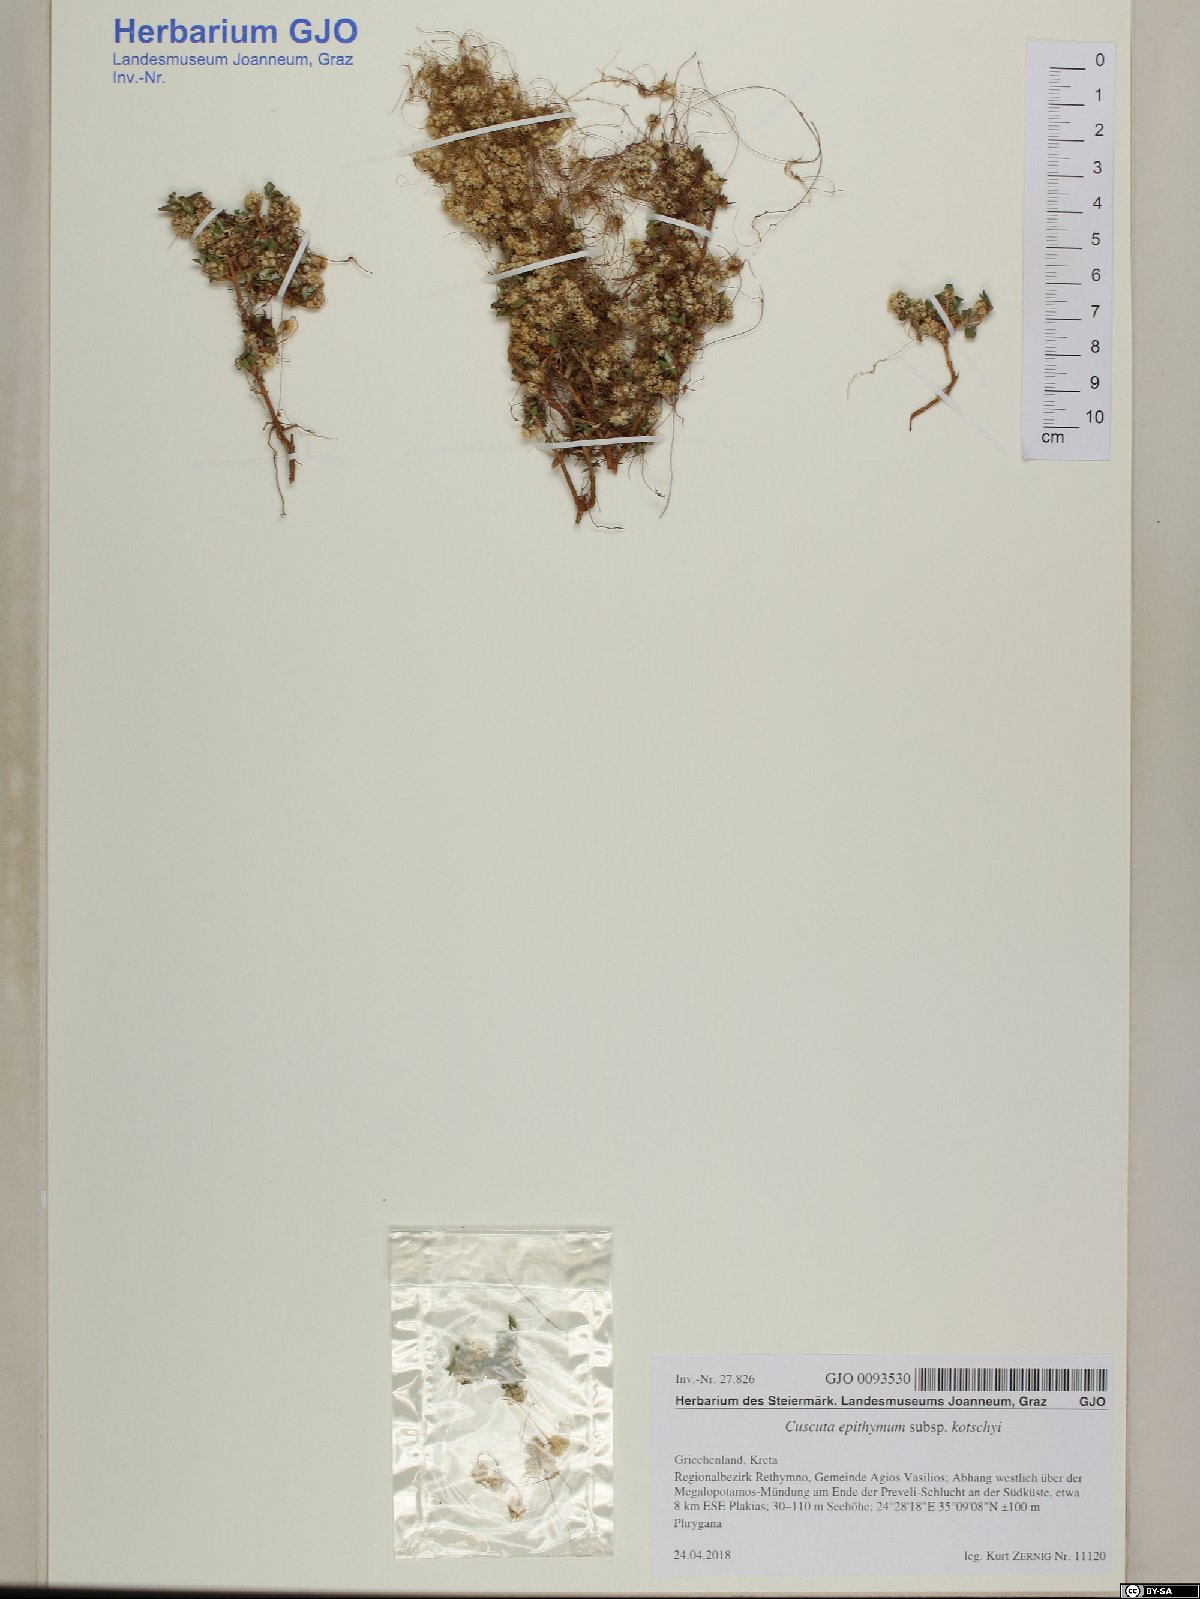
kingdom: Plantae
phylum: Tracheophyta
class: Magnoliopsida
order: Solanales
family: Convolvulaceae
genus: Cuscuta
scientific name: Cuscuta epithymum
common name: Clover dodder
